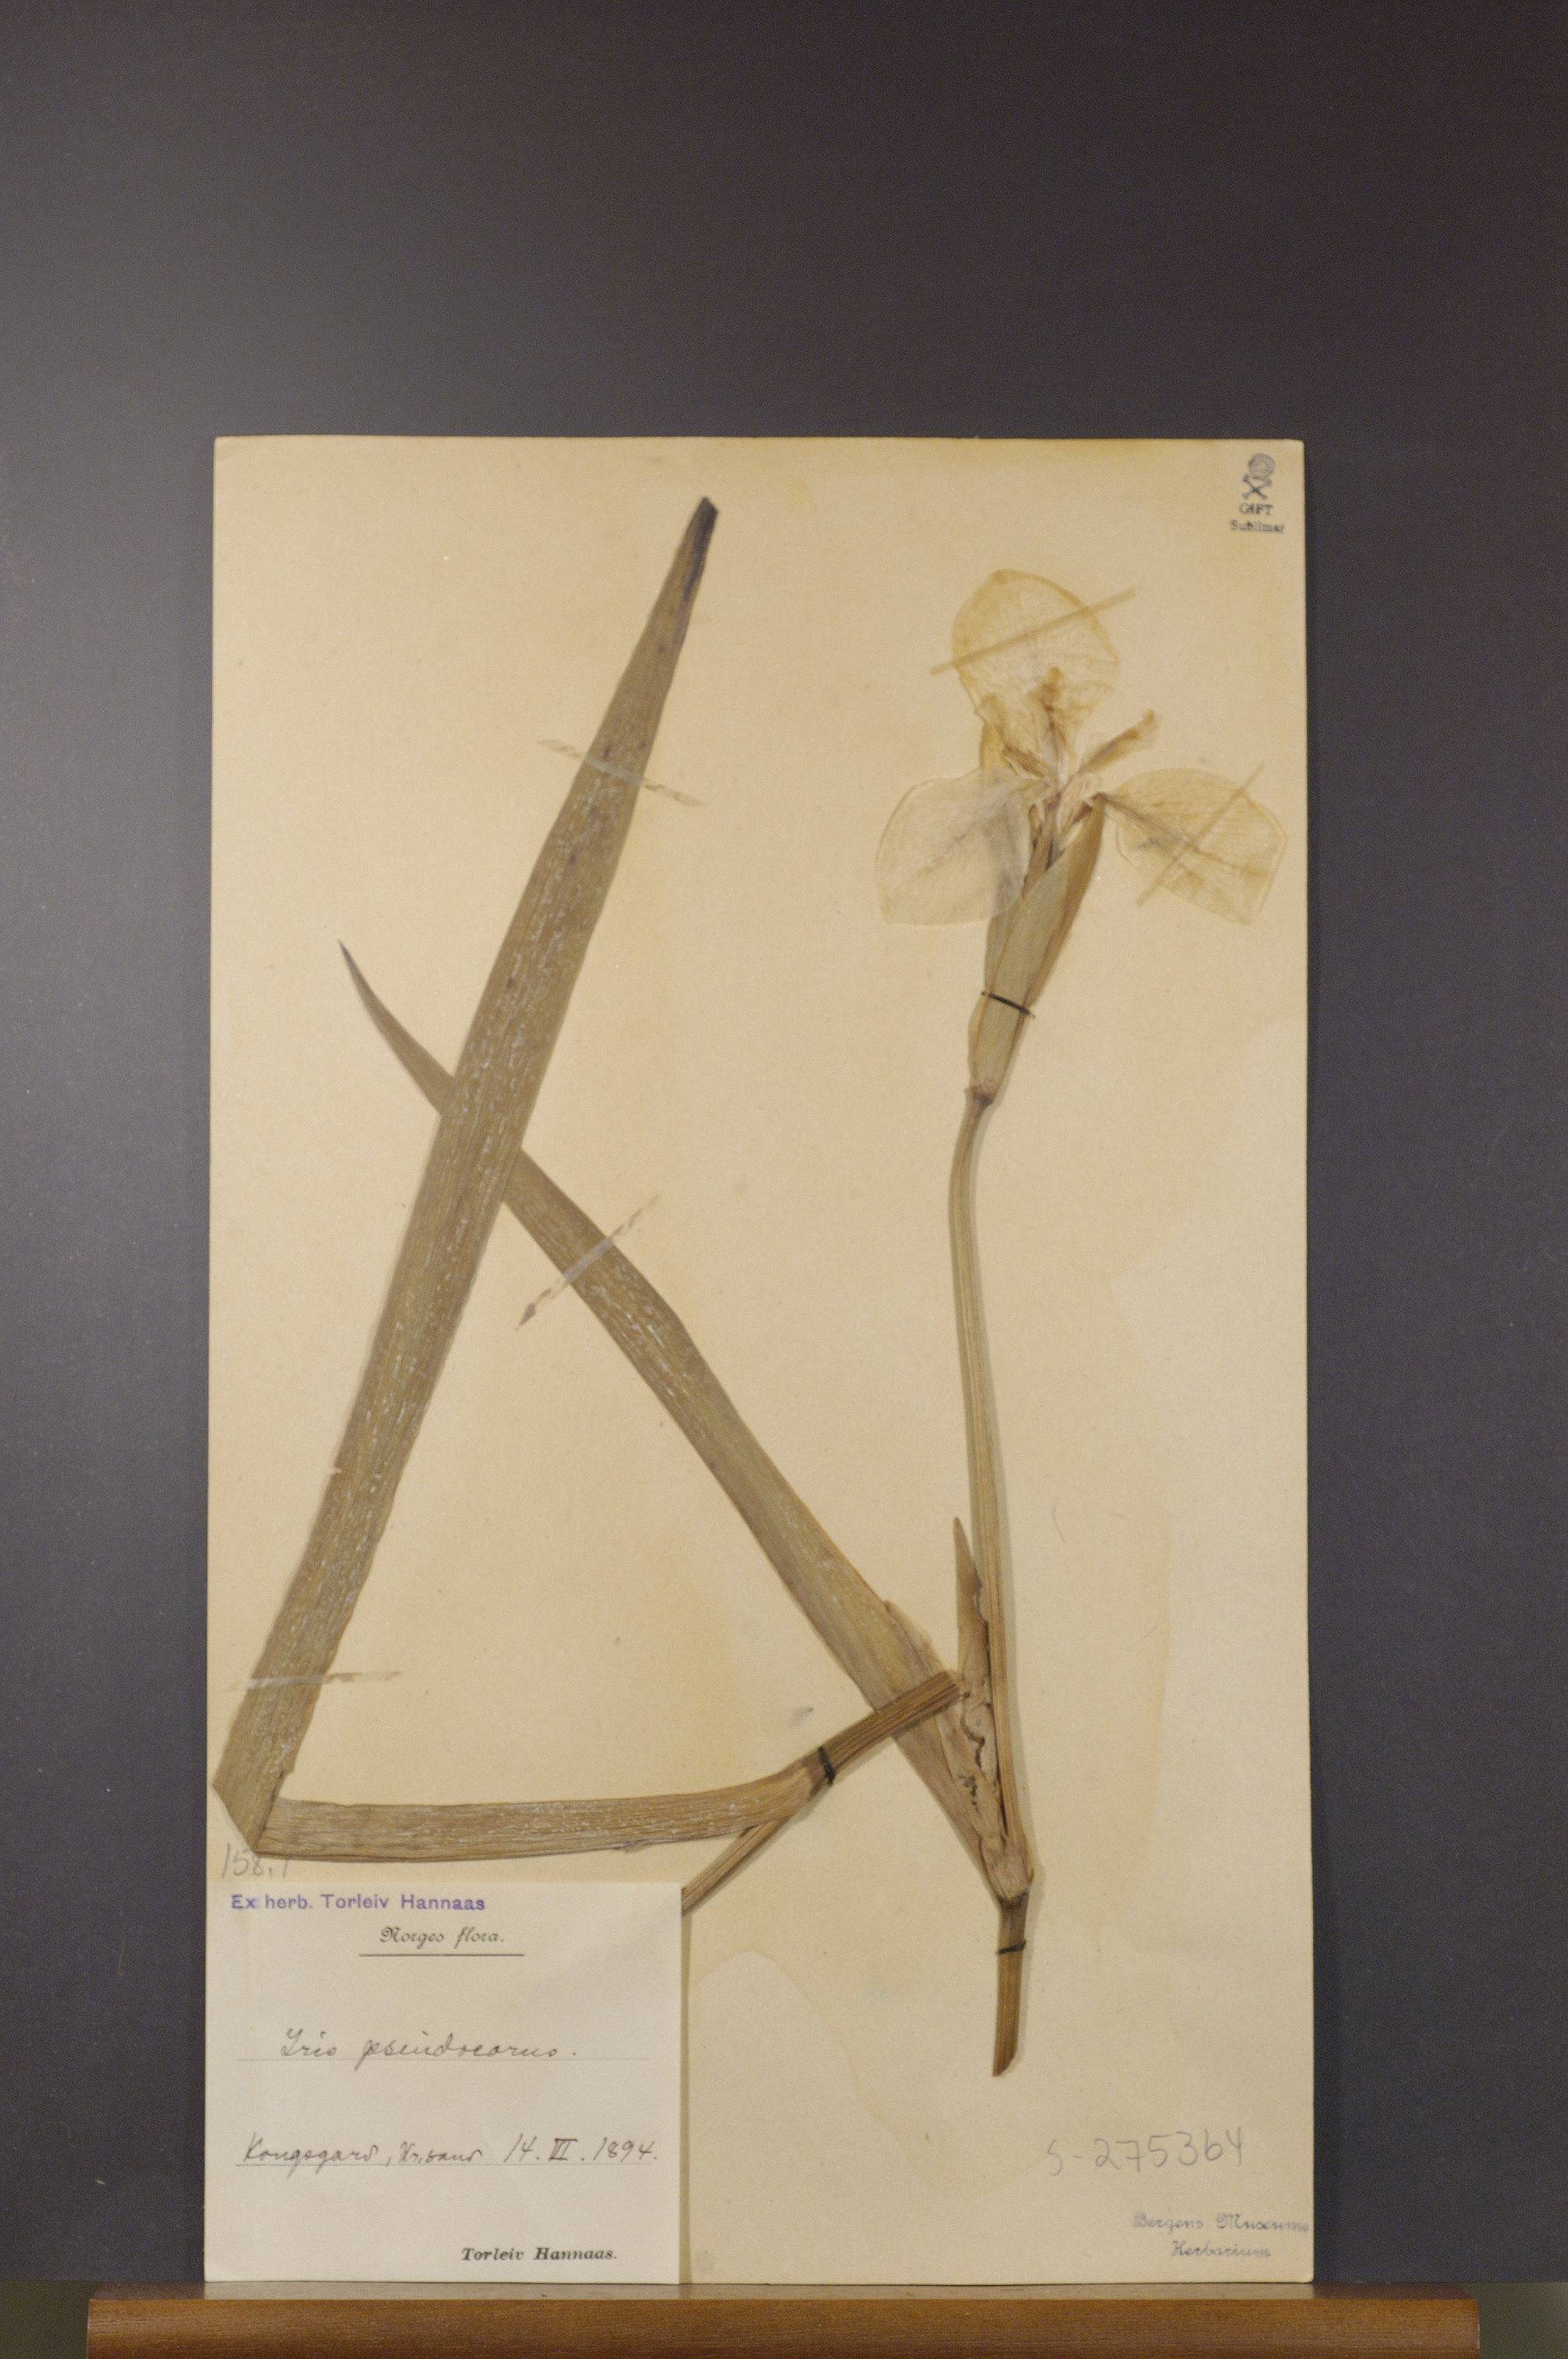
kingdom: Plantae
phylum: Tracheophyta
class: Liliopsida
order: Asparagales
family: Iridaceae
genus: Iris
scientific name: Iris pseudacorus
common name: Yellow flag
